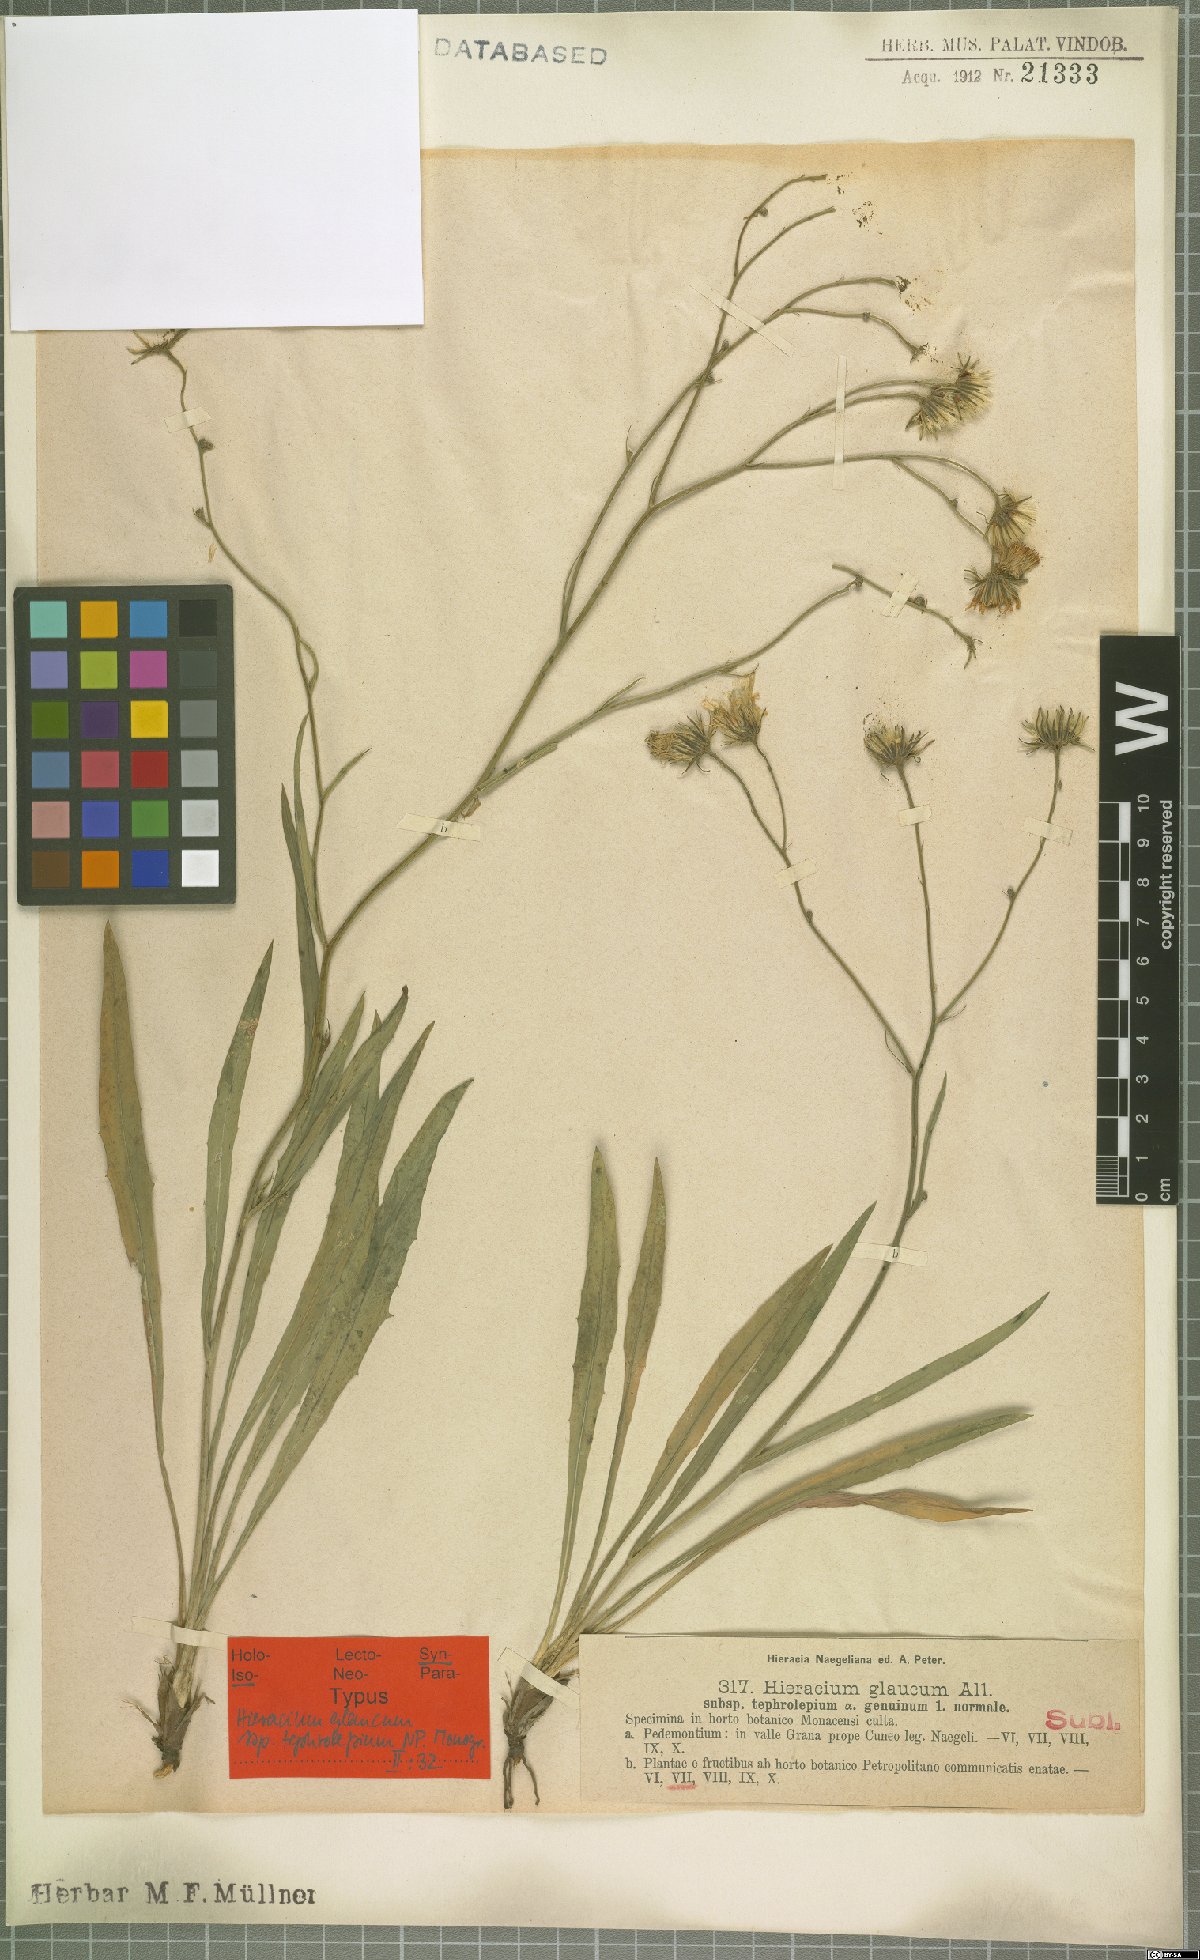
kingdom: Plantae
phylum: Tracheophyta
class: Magnoliopsida
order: Asterales
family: Asteraceae
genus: Hieracium
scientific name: Hieracium glaucum
